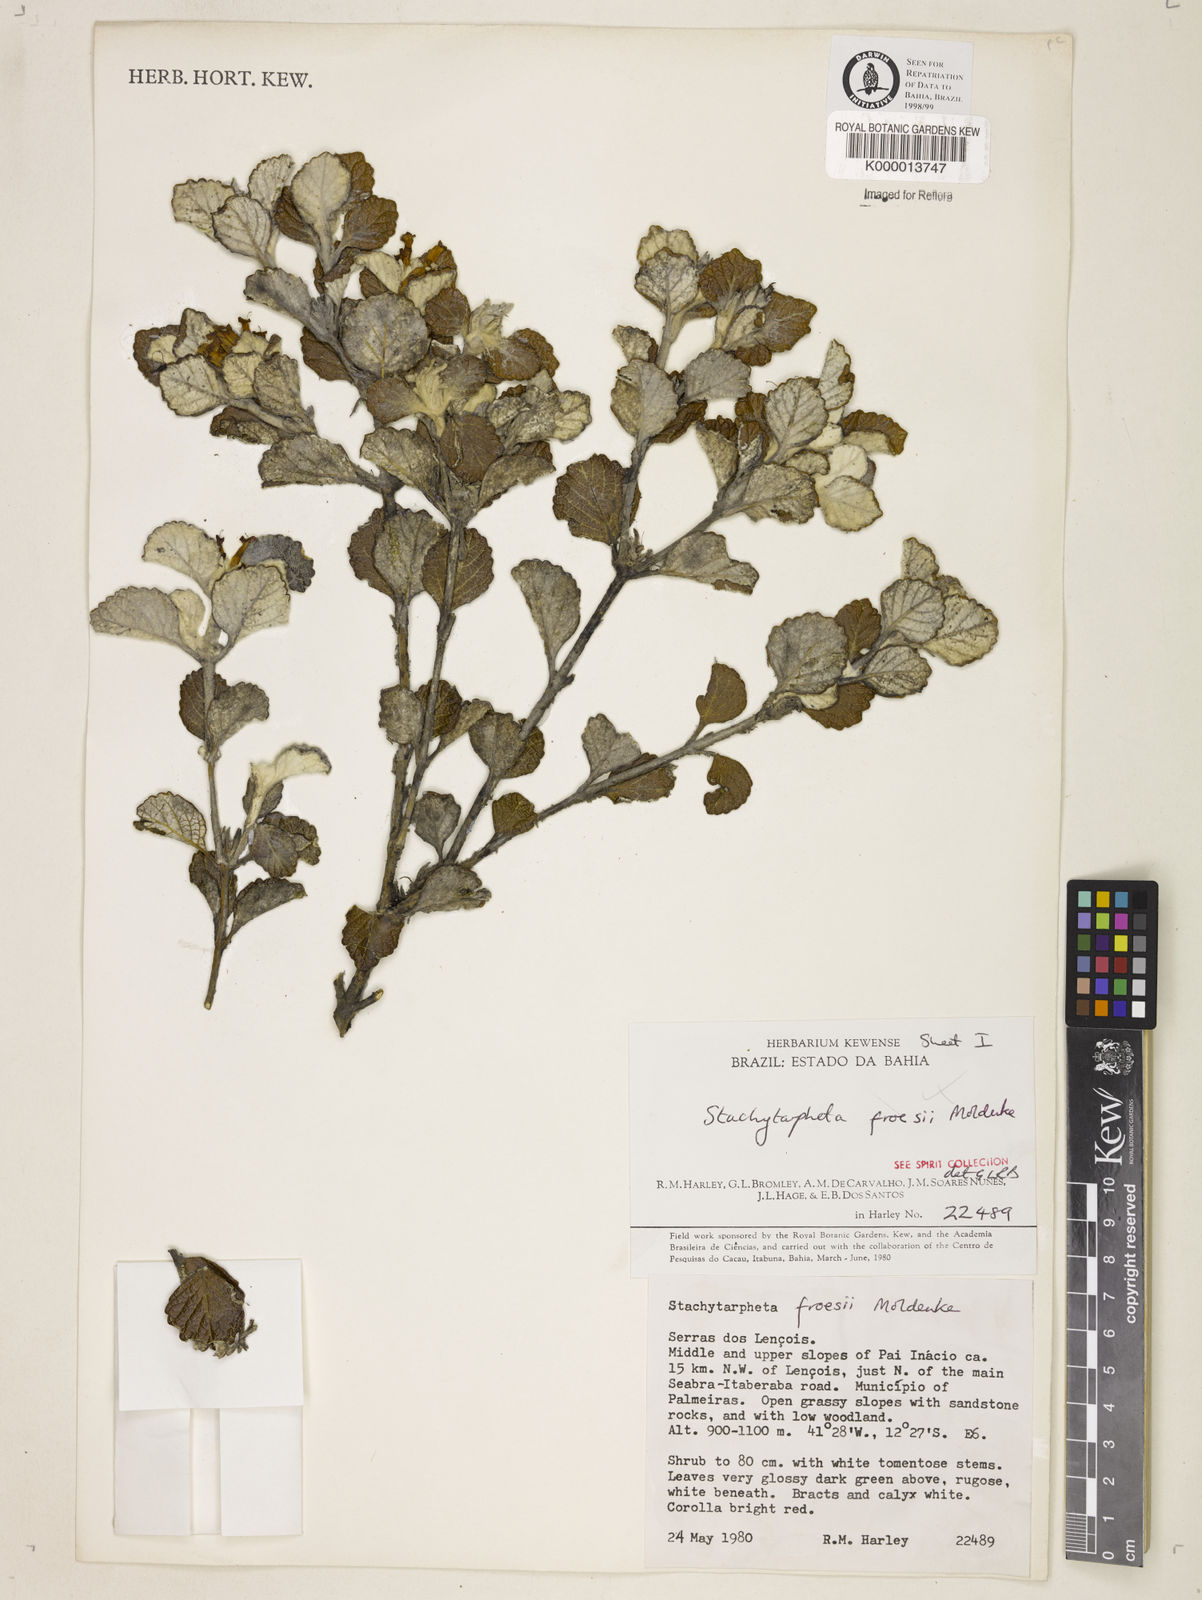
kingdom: Plantae
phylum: Tracheophyta
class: Magnoliopsida
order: Lamiales
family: Verbenaceae
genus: Stachytarpheta
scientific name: Stachytarpheta froesii
